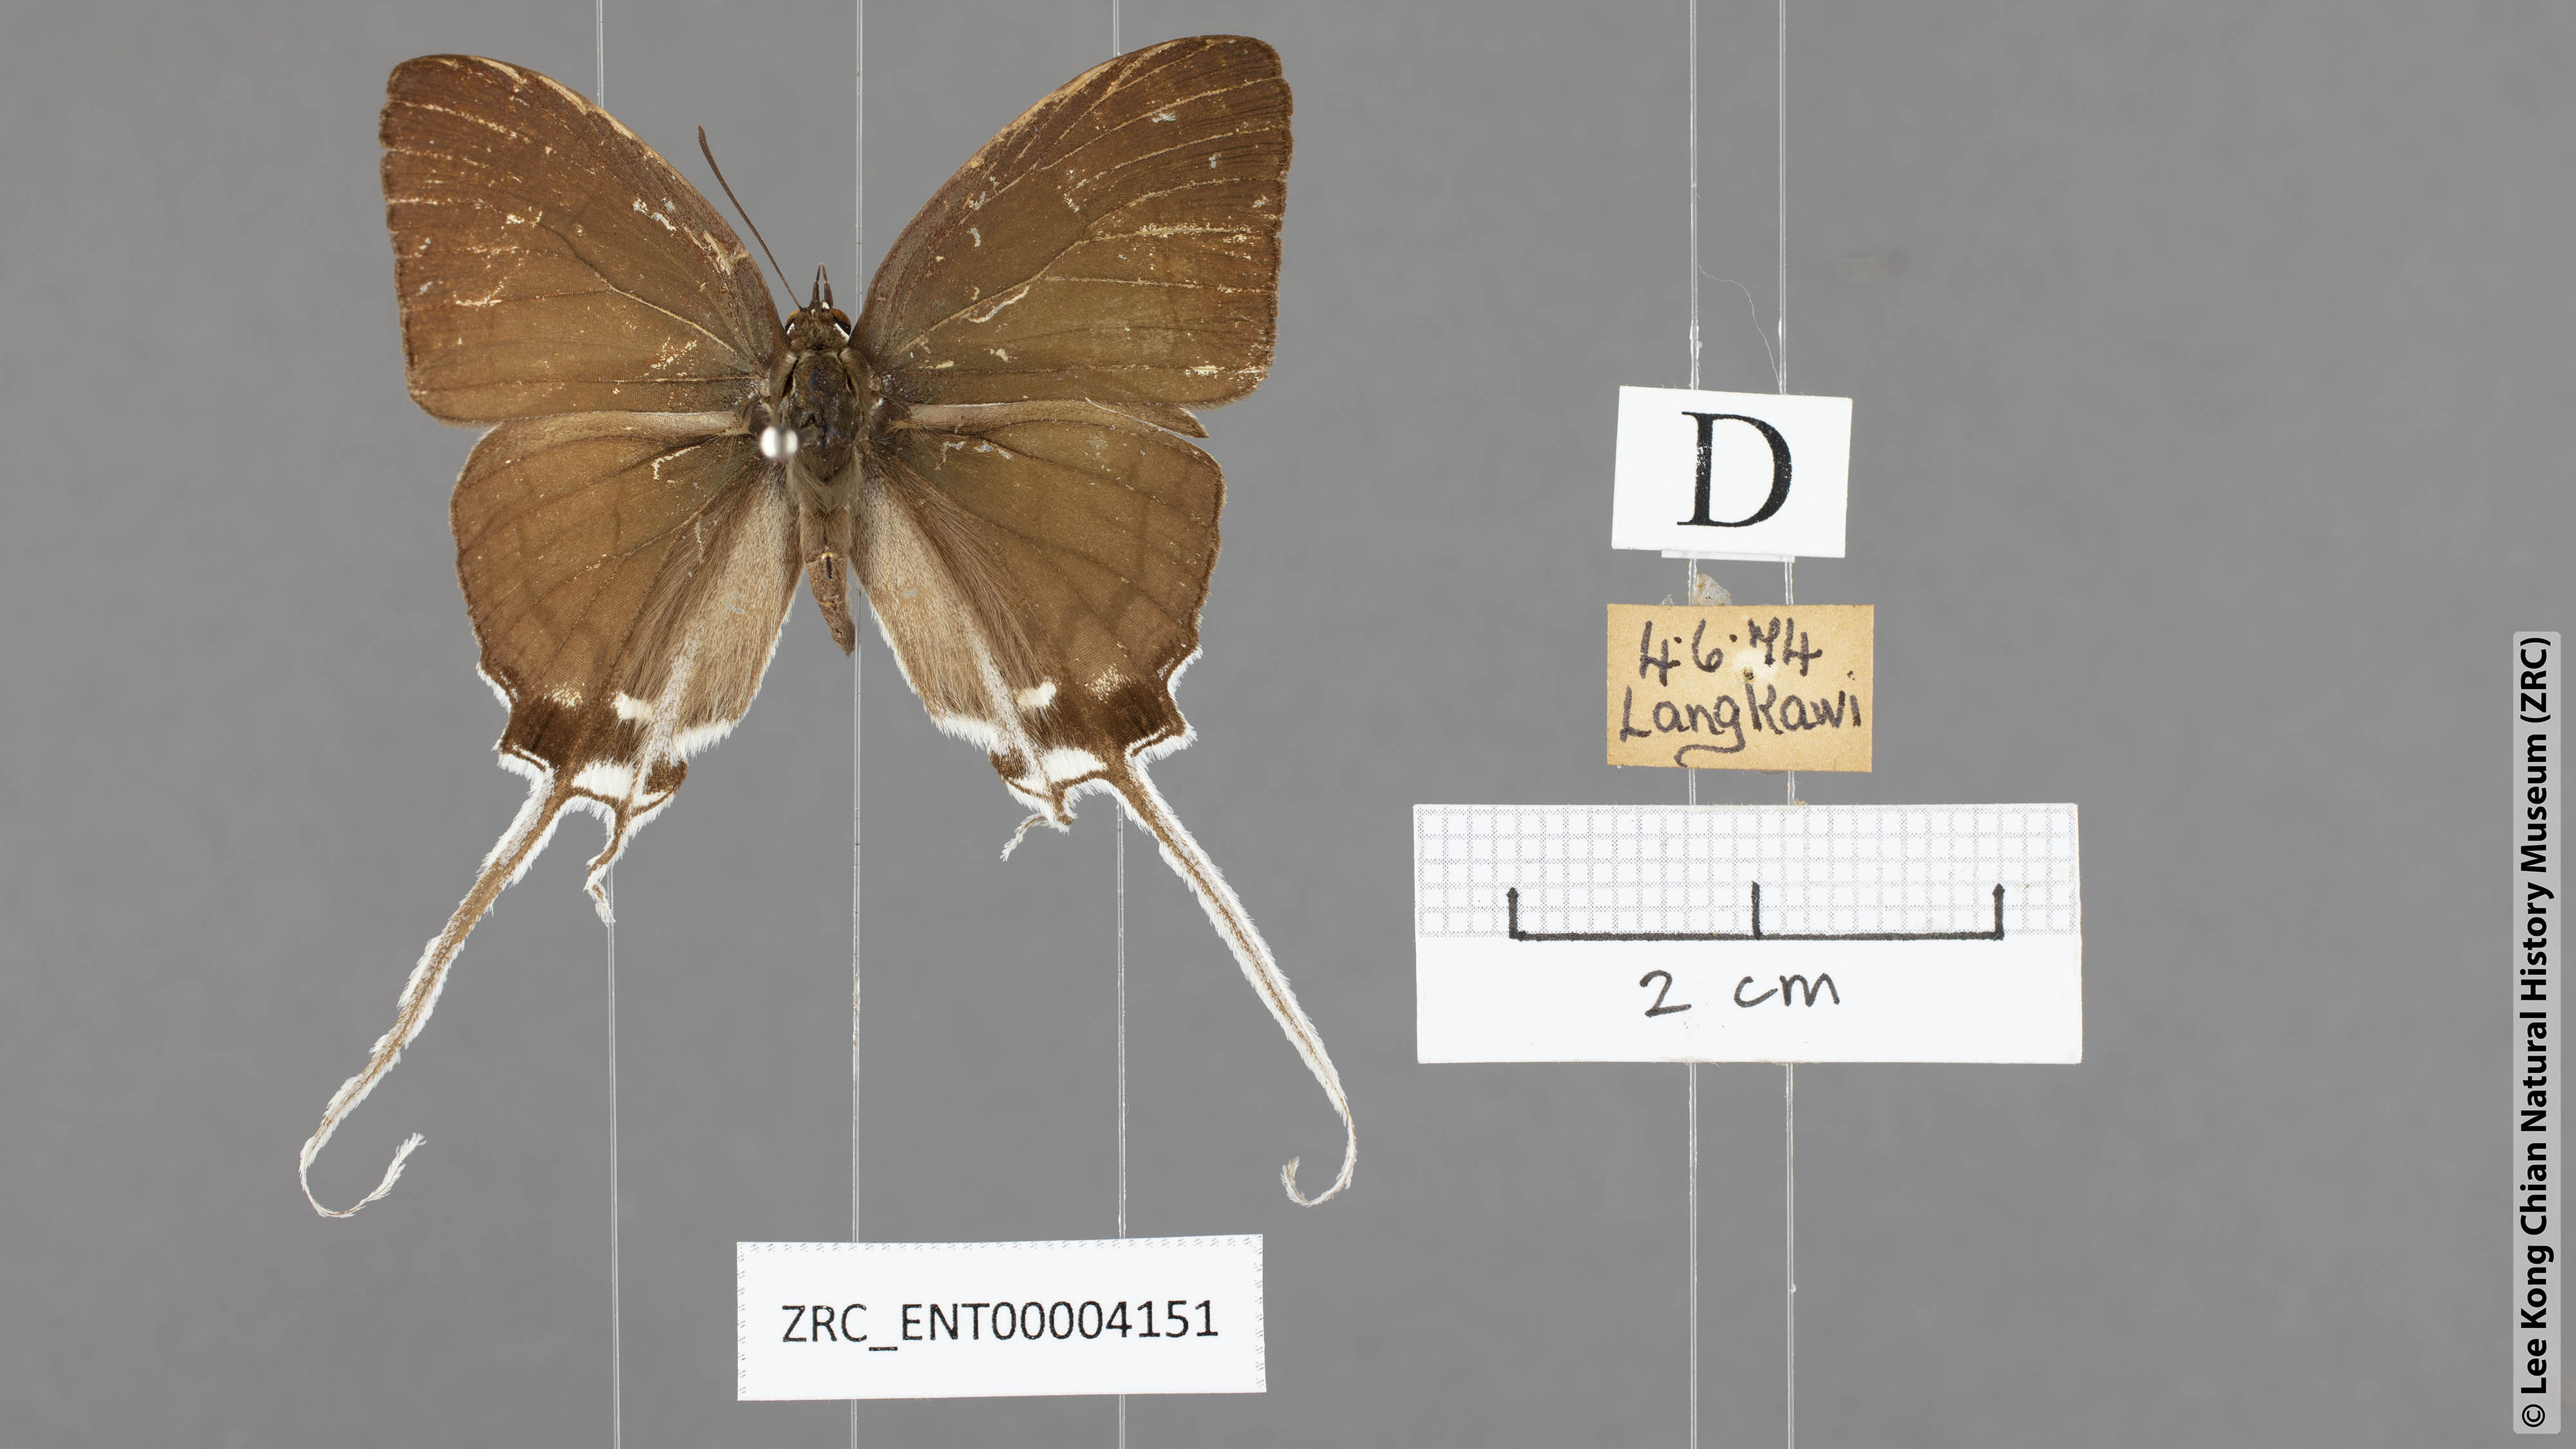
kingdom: Animalia
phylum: Arthropoda
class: Insecta
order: Lepidoptera
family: Lycaenidae
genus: Cheritra
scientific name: Cheritra freja
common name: Common imperial
